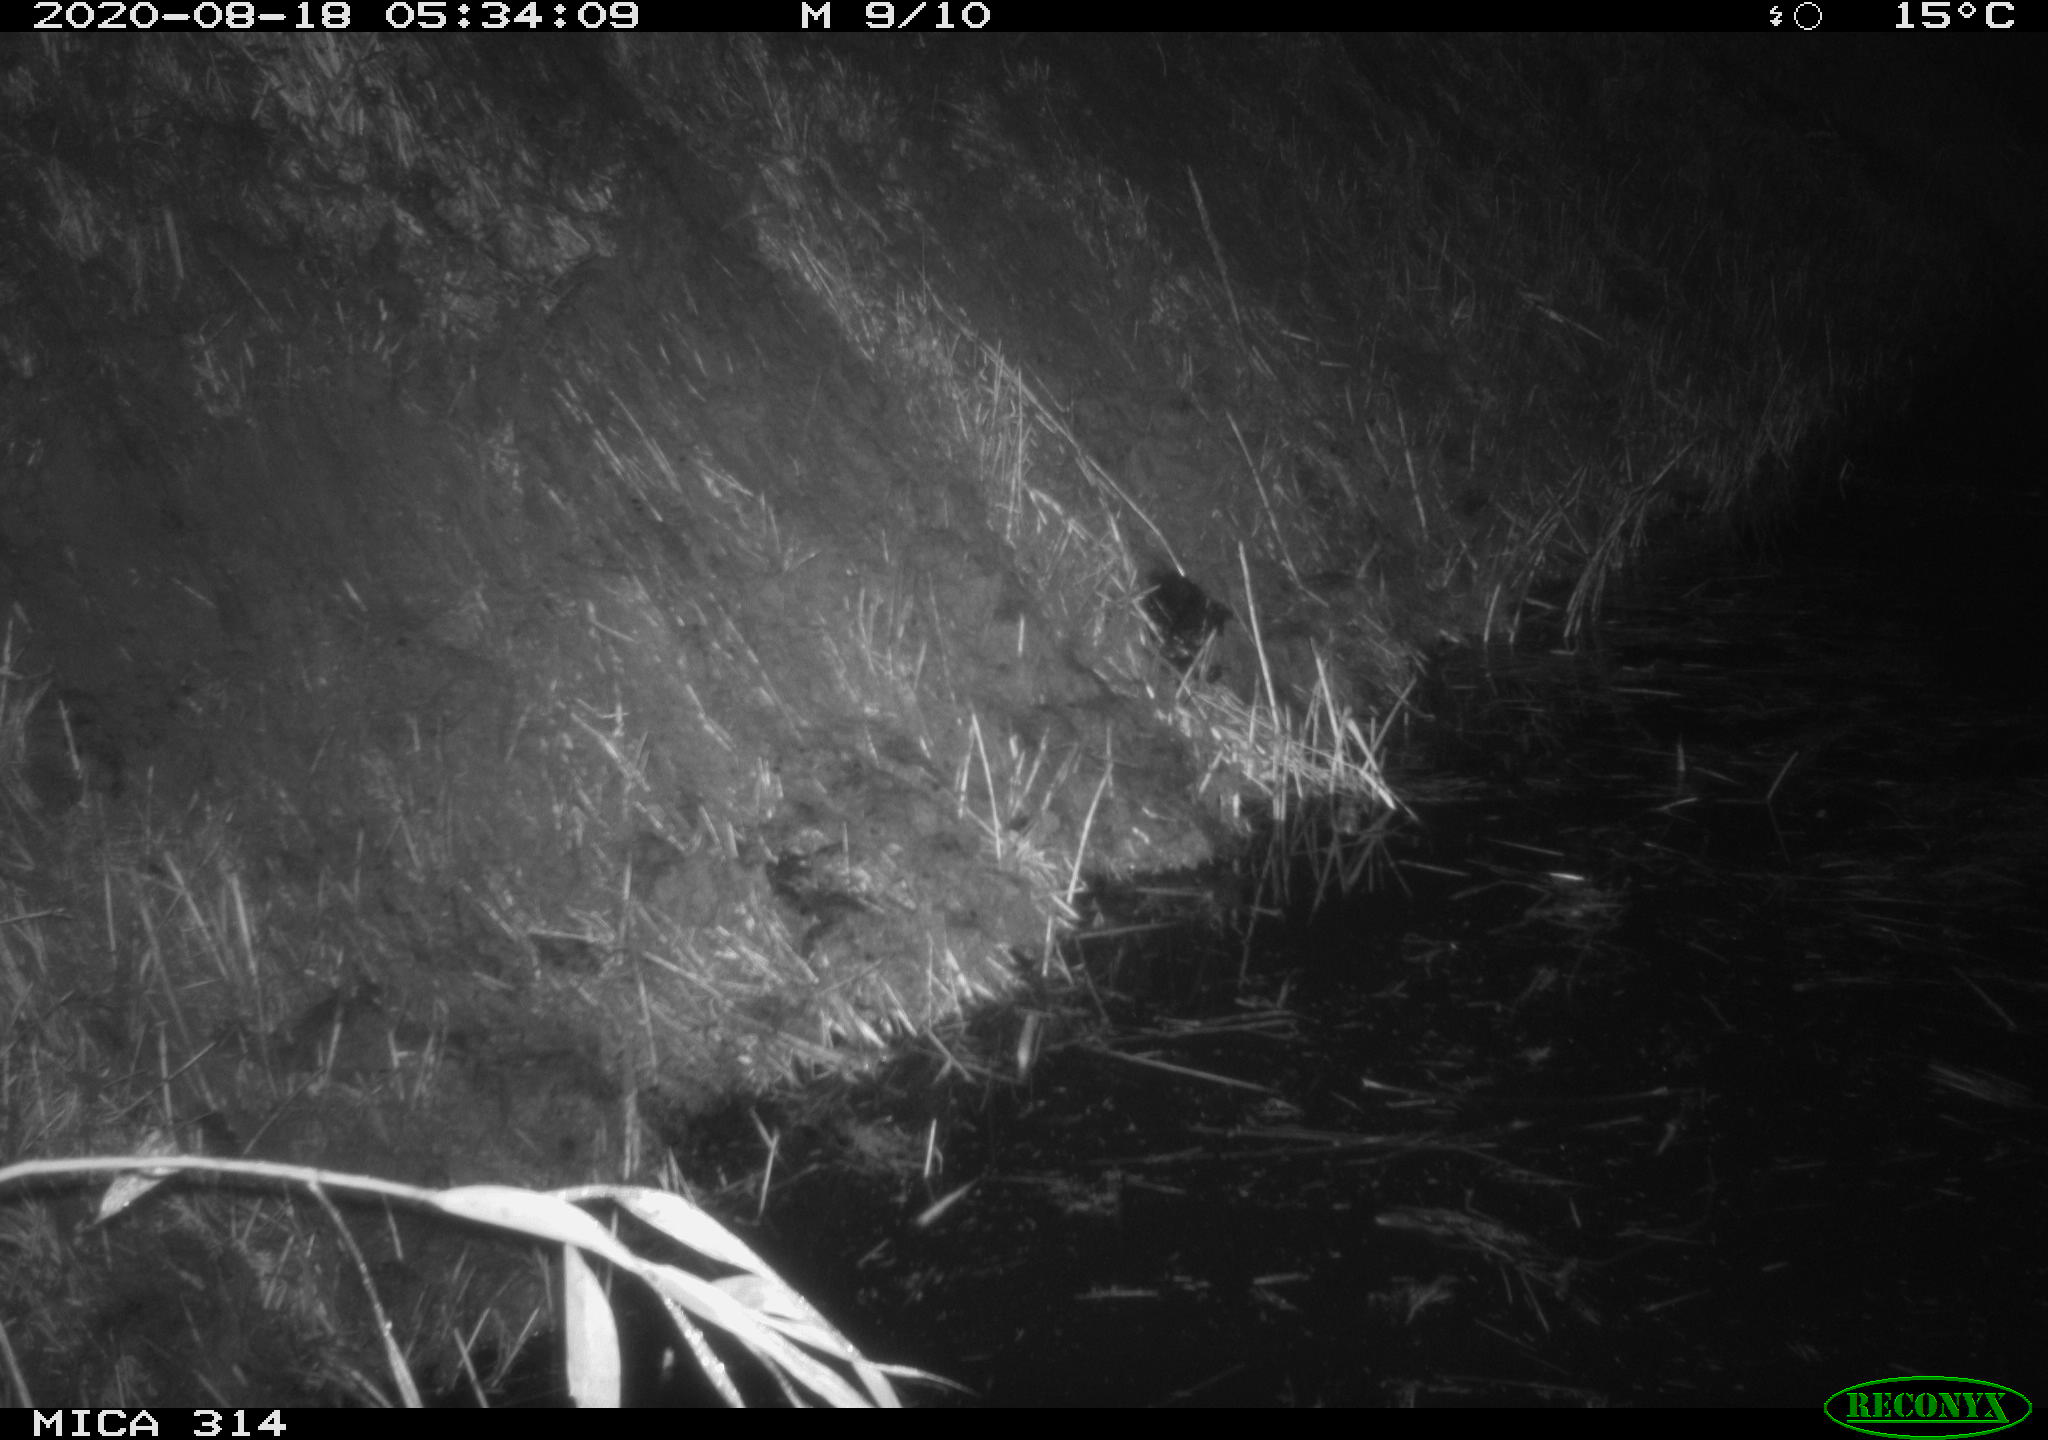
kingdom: Animalia
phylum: Chordata
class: Mammalia
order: Rodentia
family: Muridae
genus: Rattus
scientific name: Rattus norvegicus
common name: Brown rat
